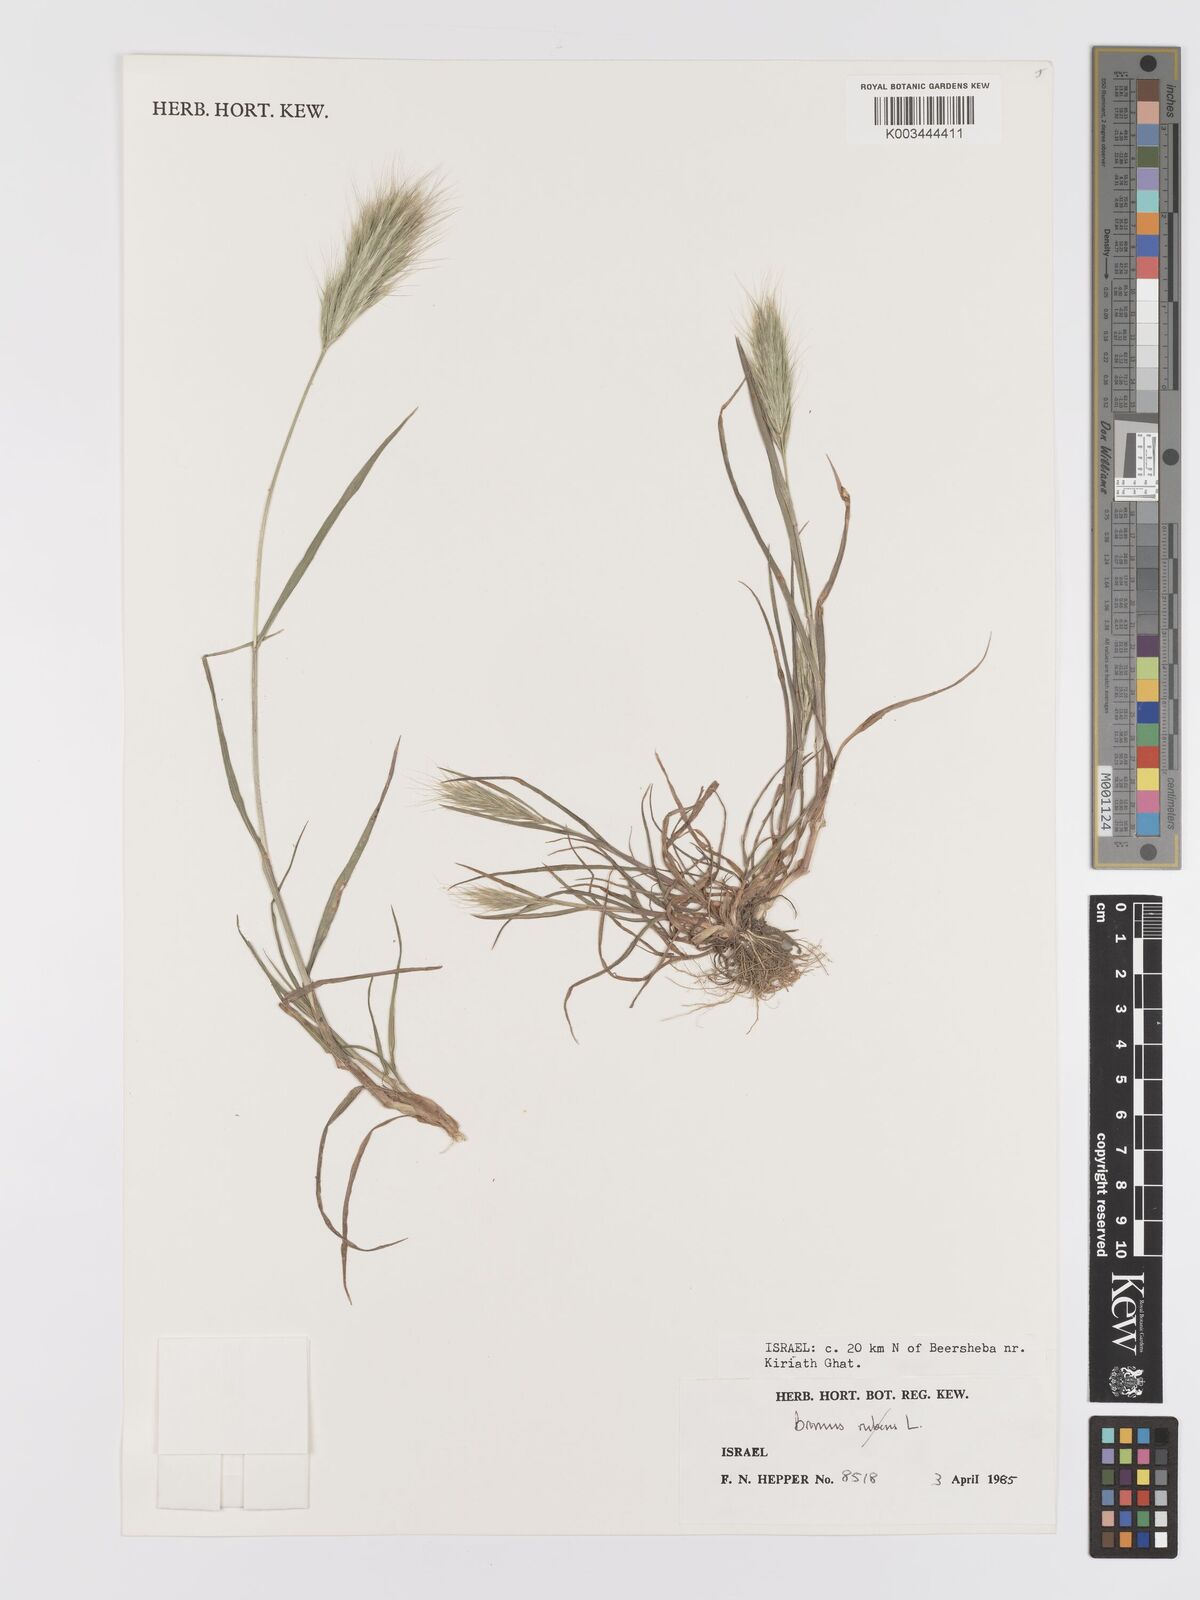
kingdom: Plantae
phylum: Tracheophyta
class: Liliopsida
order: Poales
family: Poaceae
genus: Bromus
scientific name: Bromus rubens
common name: Red brome
